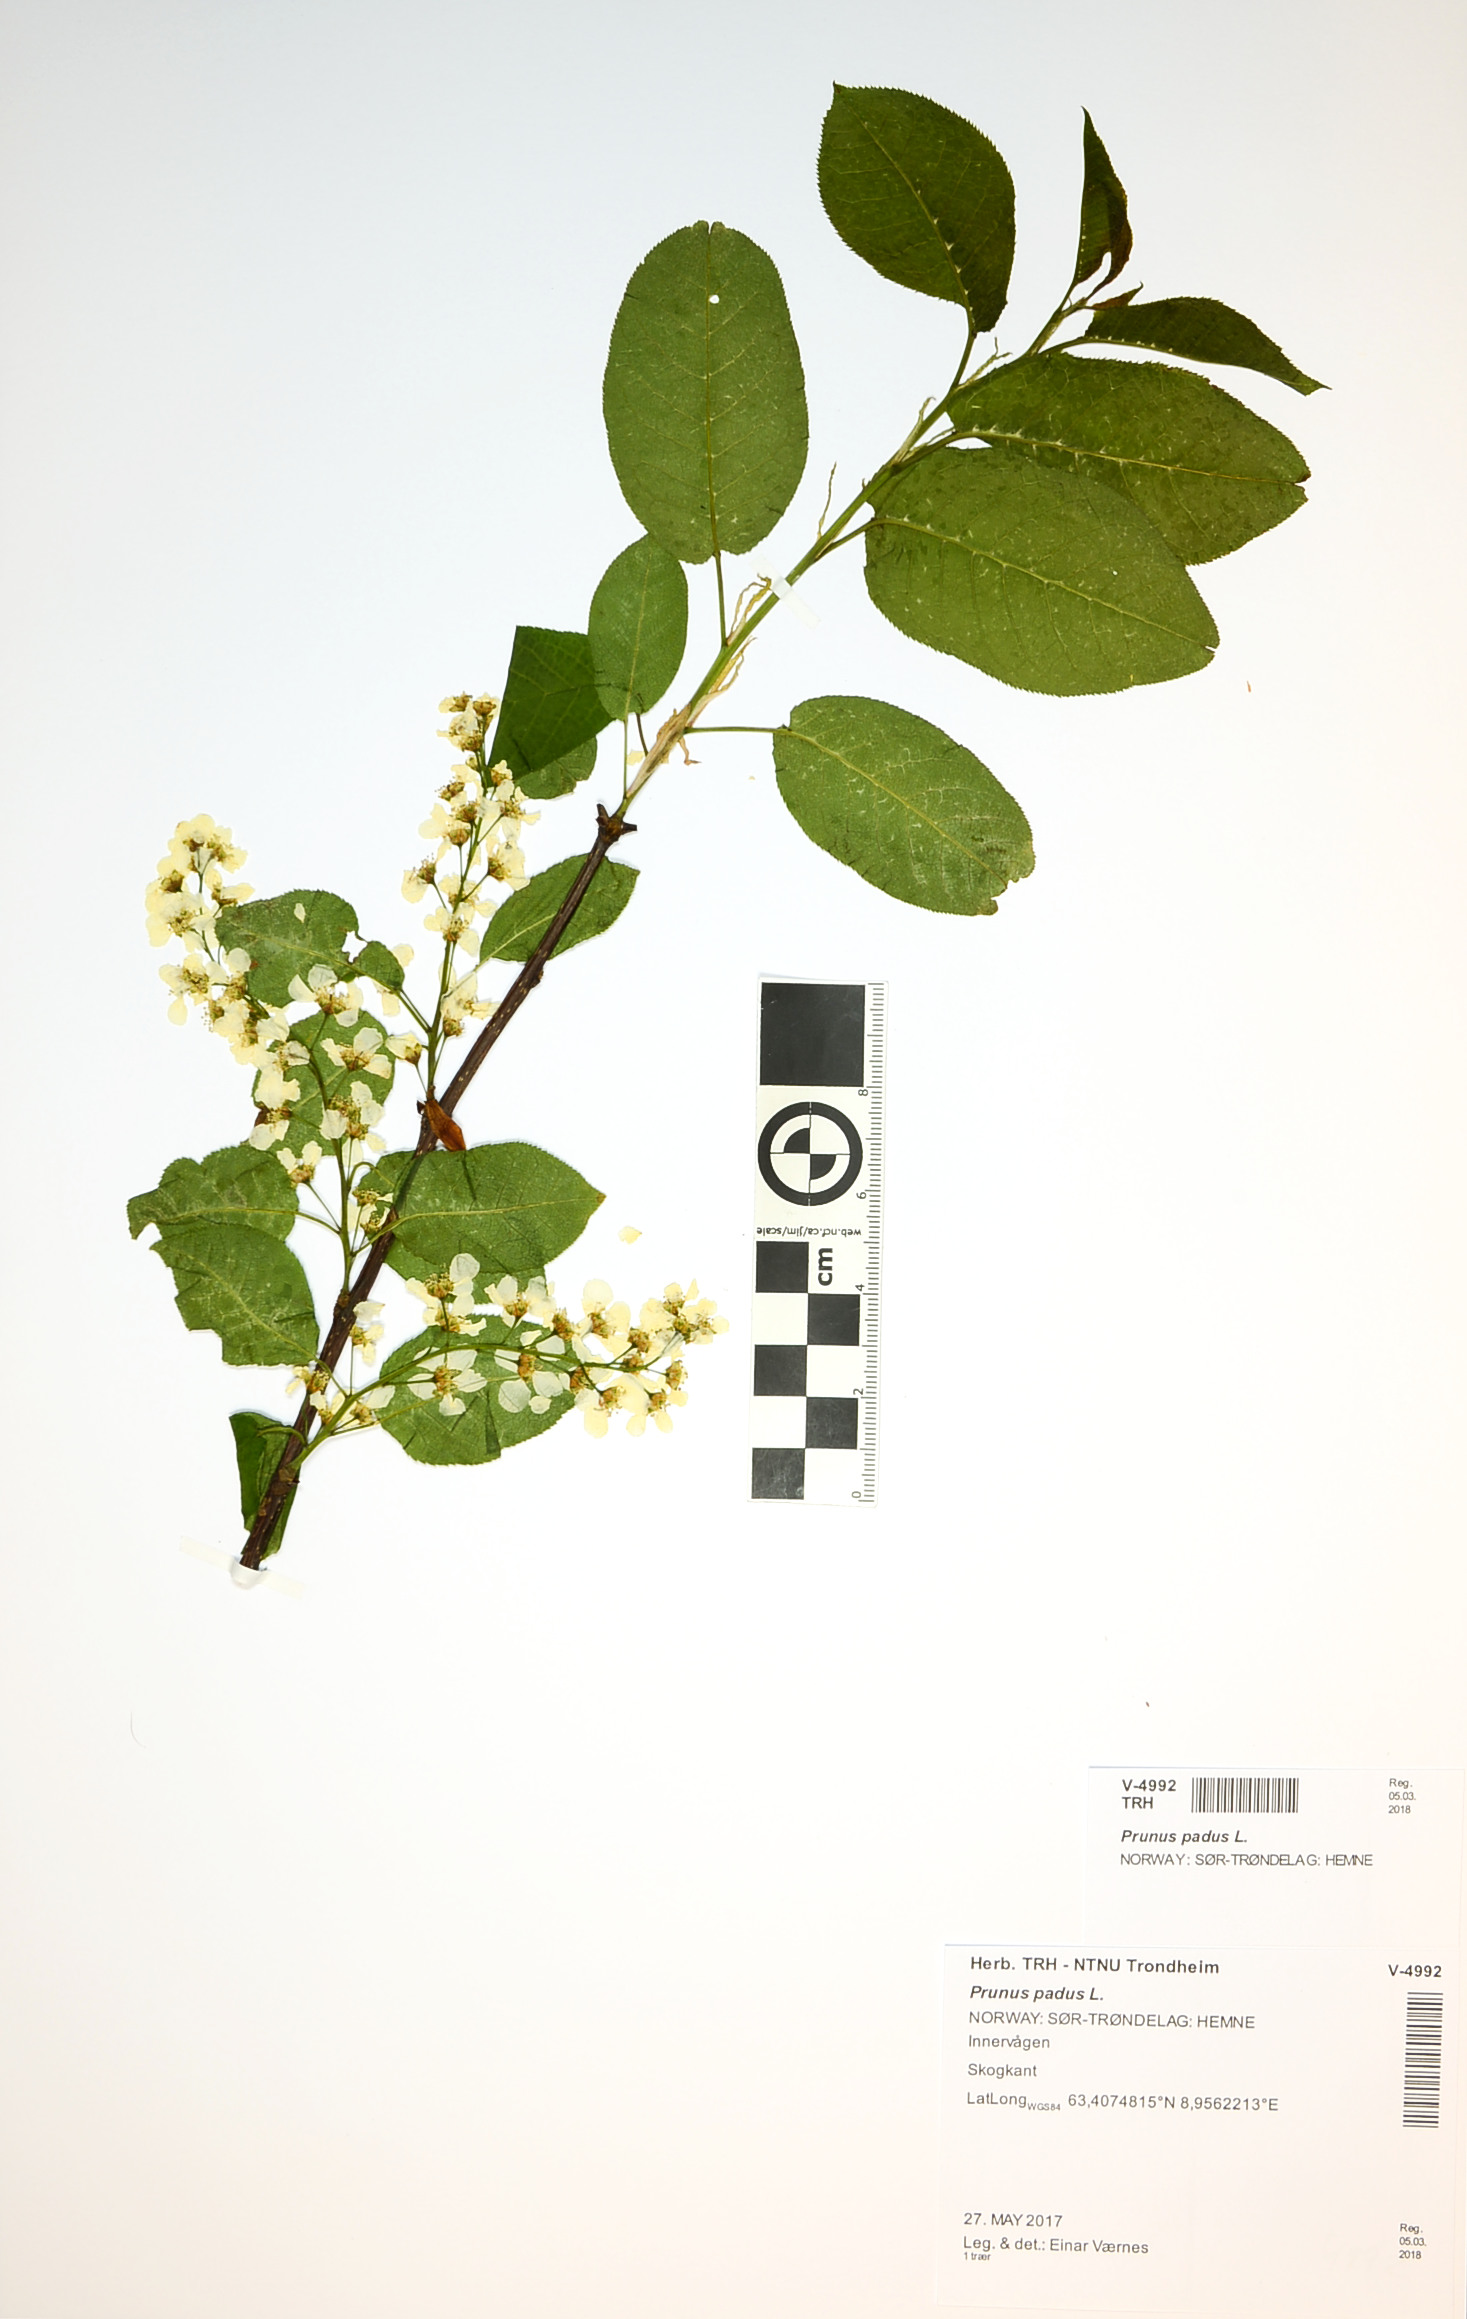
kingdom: Plantae
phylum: Tracheophyta
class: Magnoliopsida
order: Rosales
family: Rosaceae
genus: Prunus
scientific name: Prunus padus
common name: Bird cherry
